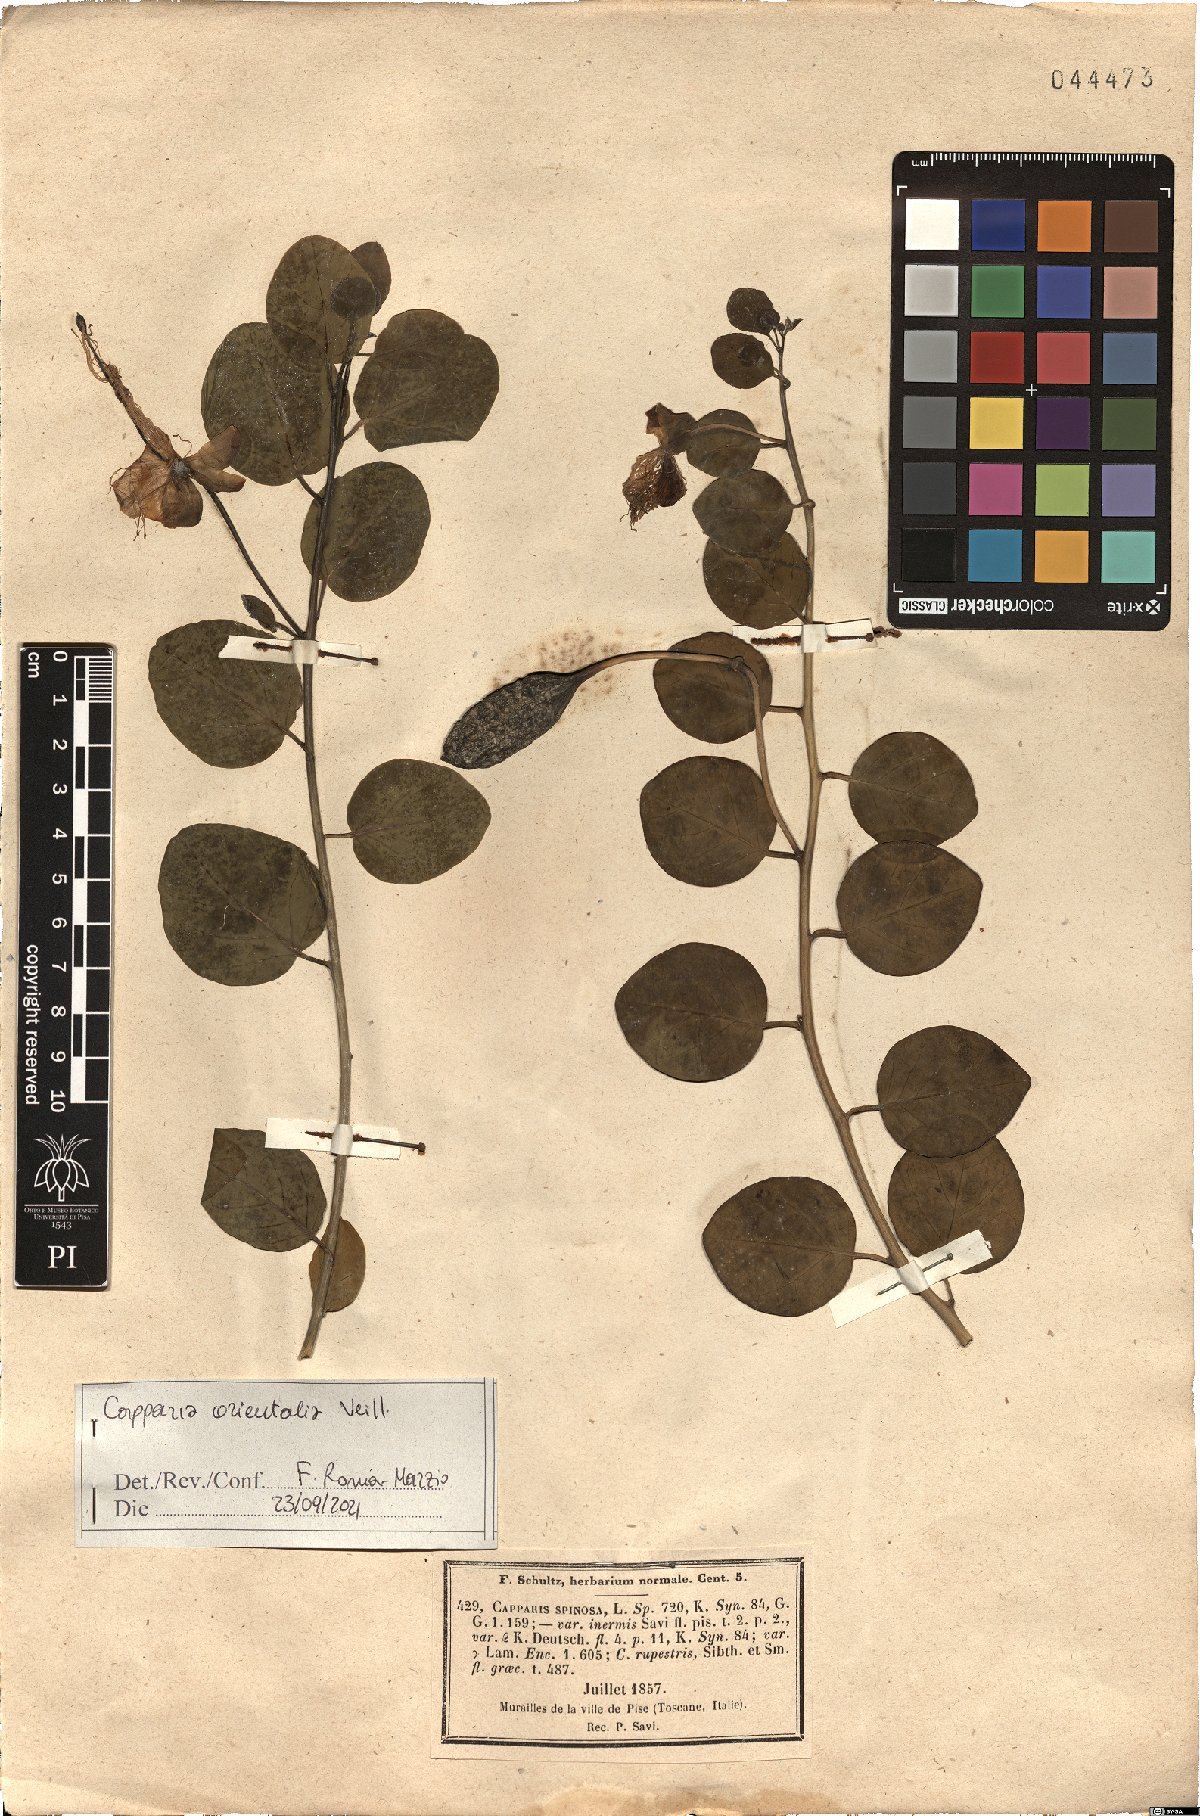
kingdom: Plantae
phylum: Tracheophyta
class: Magnoliopsida
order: Brassicales
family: Capparaceae
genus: Capparis
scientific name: Capparis spinosa
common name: Caper
